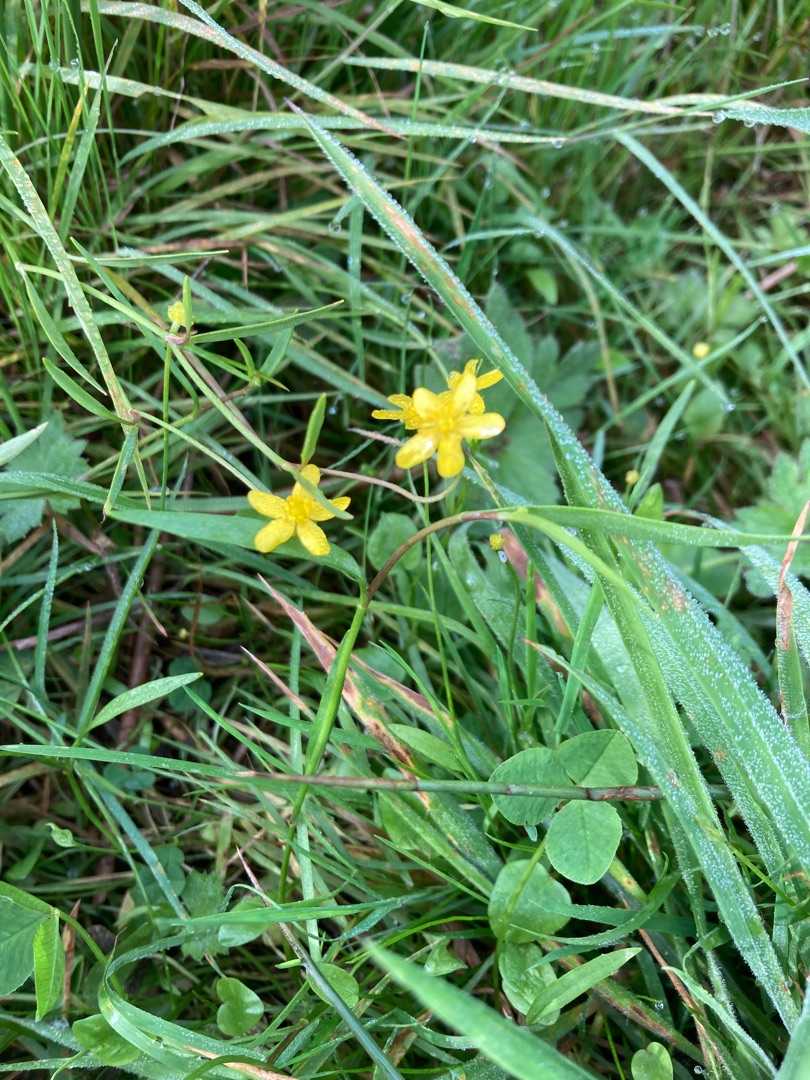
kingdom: Plantae
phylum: Tracheophyta
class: Magnoliopsida
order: Ranunculales
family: Ranunculaceae
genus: Ranunculus
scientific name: Ranunculus flammula
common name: Kær-ranunkel
